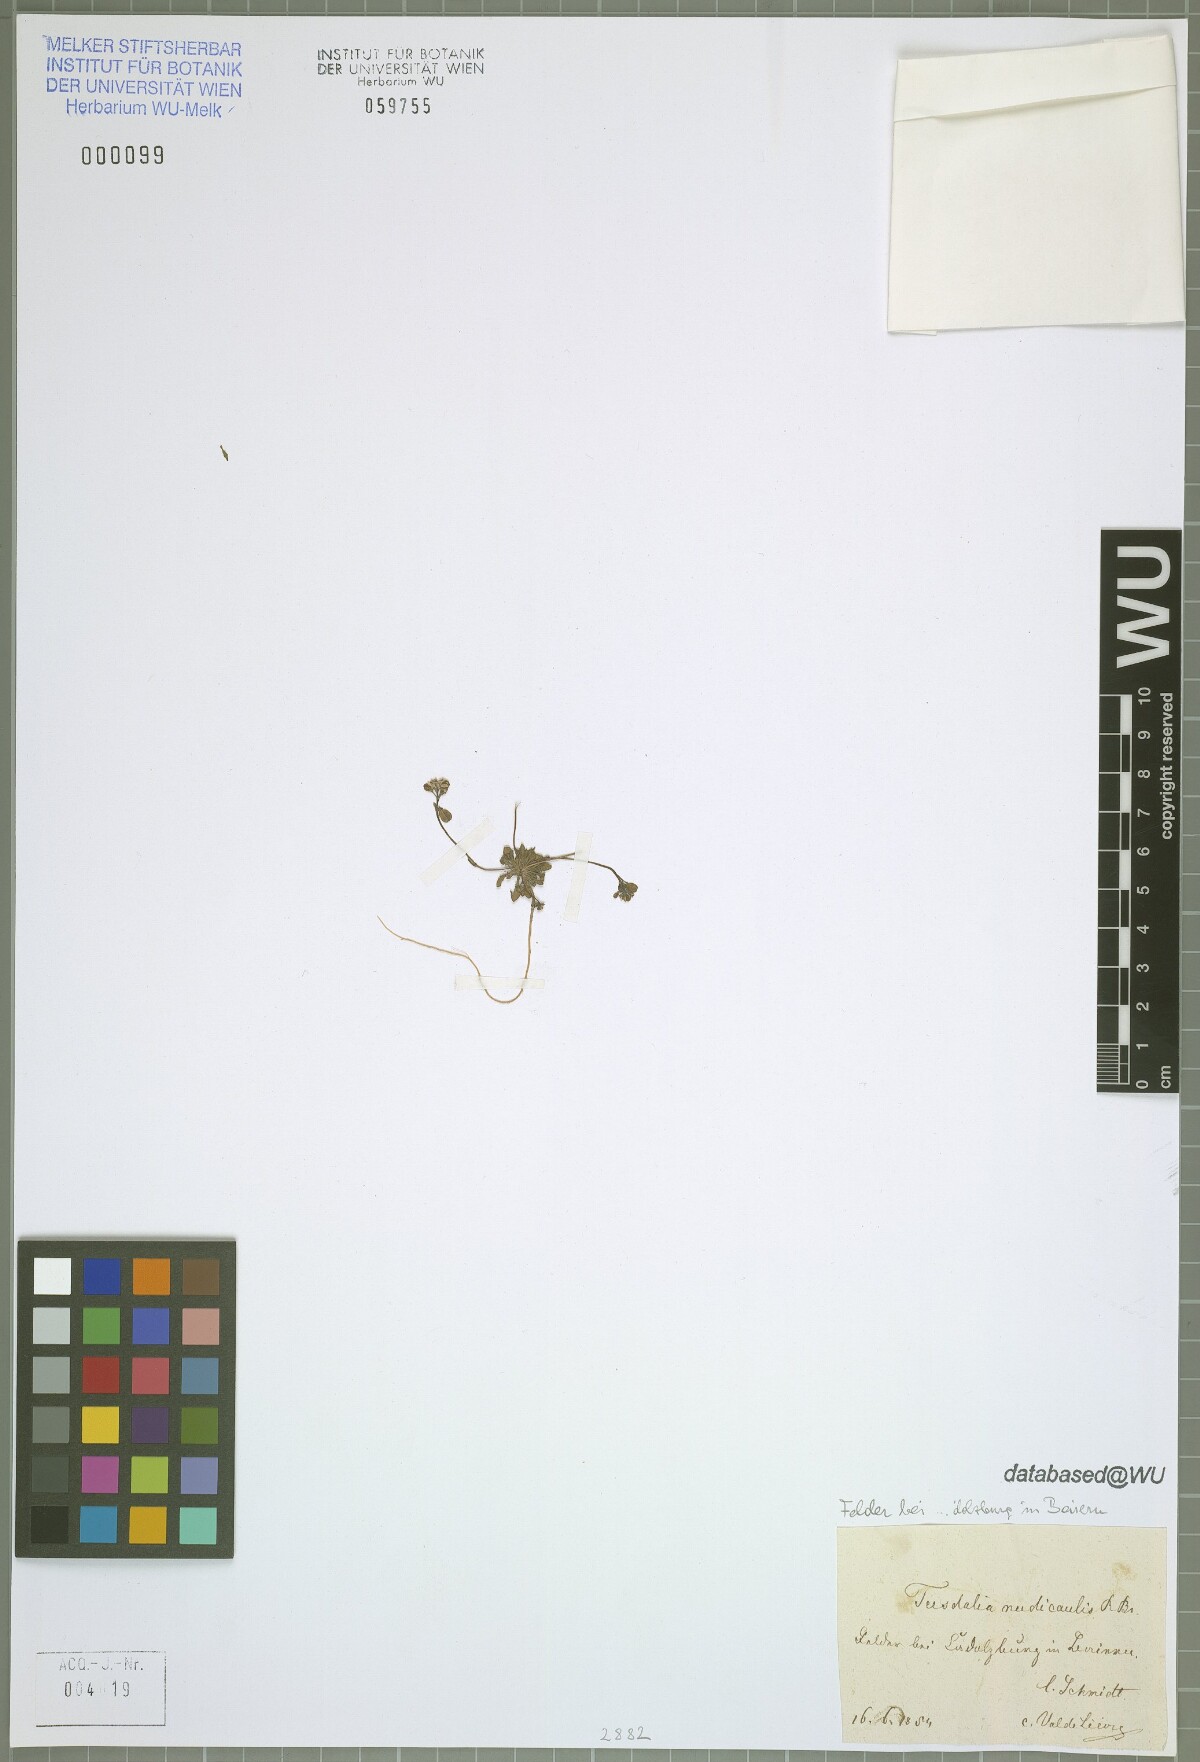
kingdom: Plantae
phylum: Tracheophyta
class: Magnoliopsida
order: Brassicales
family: Brassicaceae
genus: Teesdalia
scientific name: Teesdalia nudicaulis
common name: Shepherd's cress
